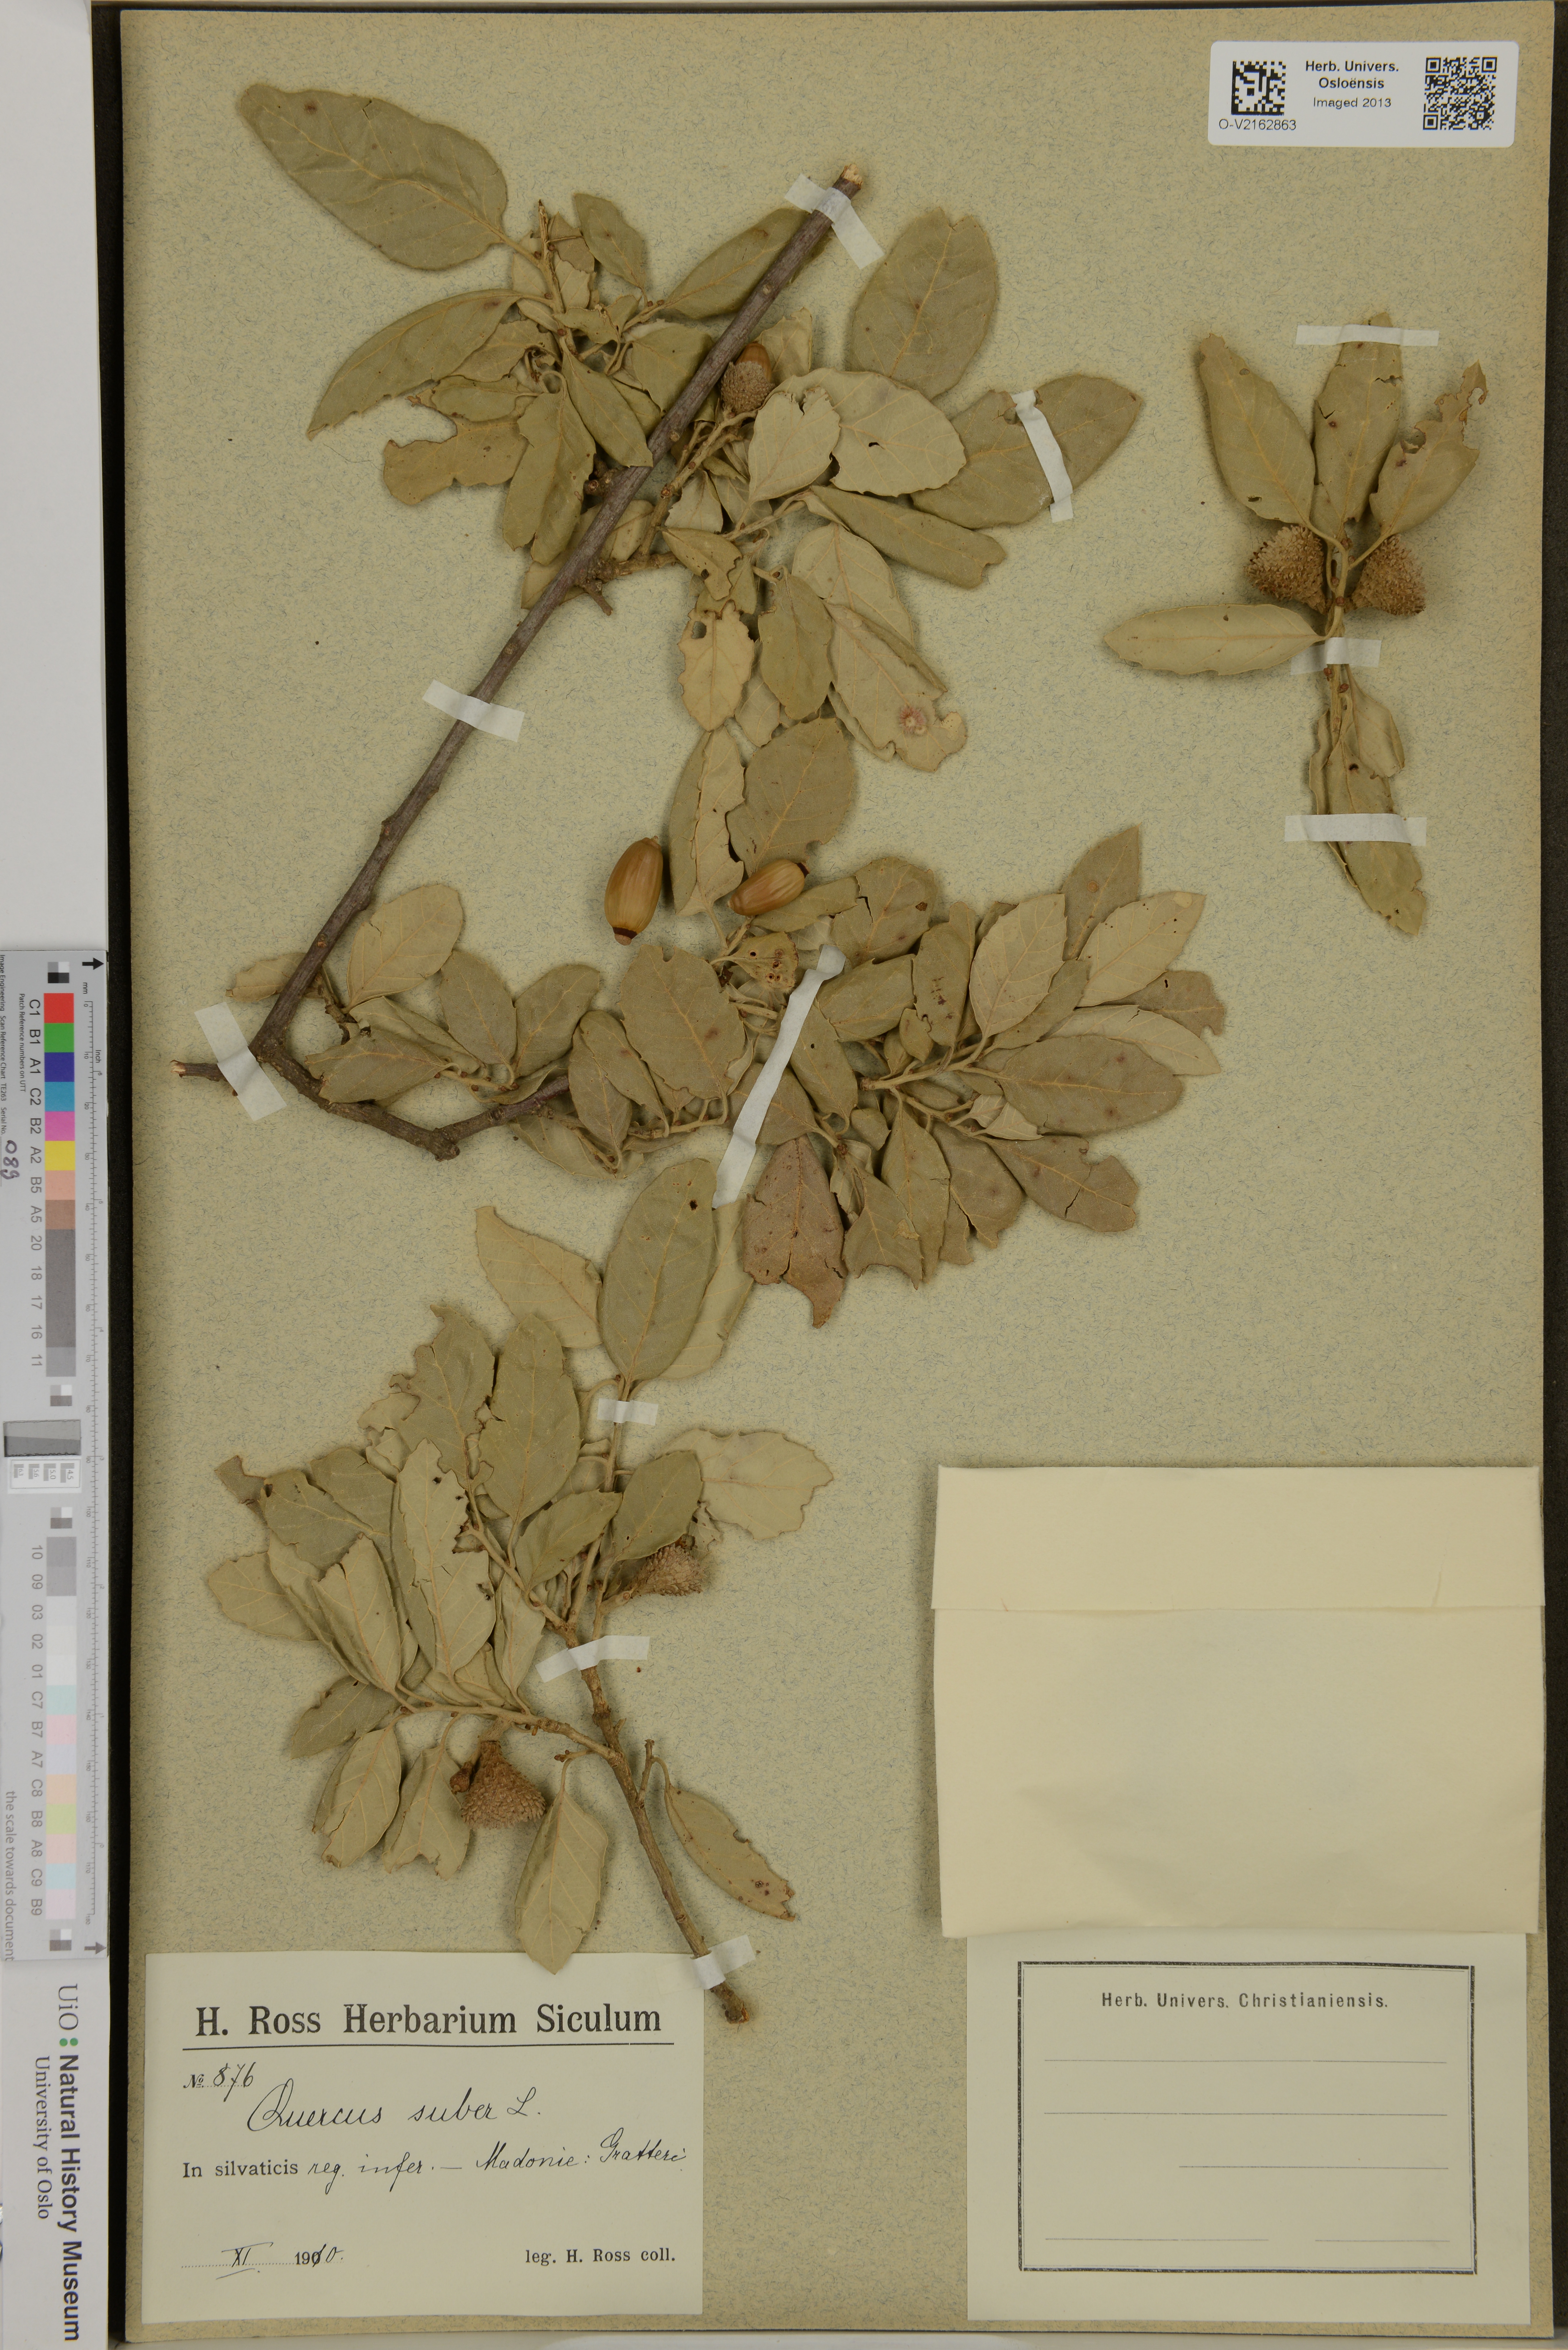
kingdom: Plantae
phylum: Tracheophyta
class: Magnoliopsida
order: Fagales
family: Fagaceae
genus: Quercus
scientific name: Quercus suber
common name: Cork oak
